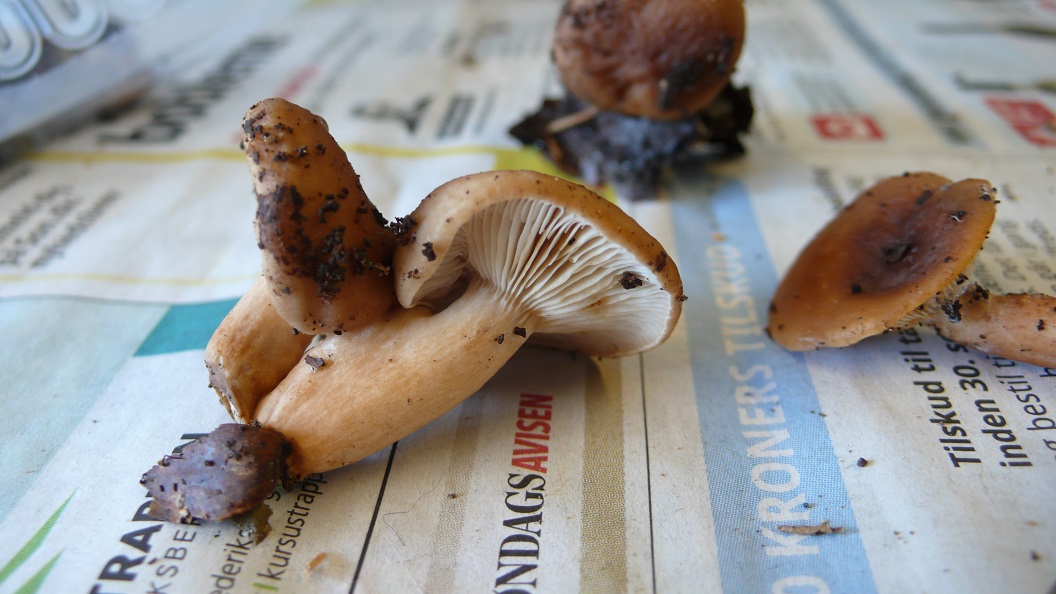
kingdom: Fungi
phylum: Basidiomycota
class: Agaricomycetes
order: Russulales
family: Russulaceae
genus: Lactarius
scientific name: Lactarius subdulcis
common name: sødlig mælkehat
